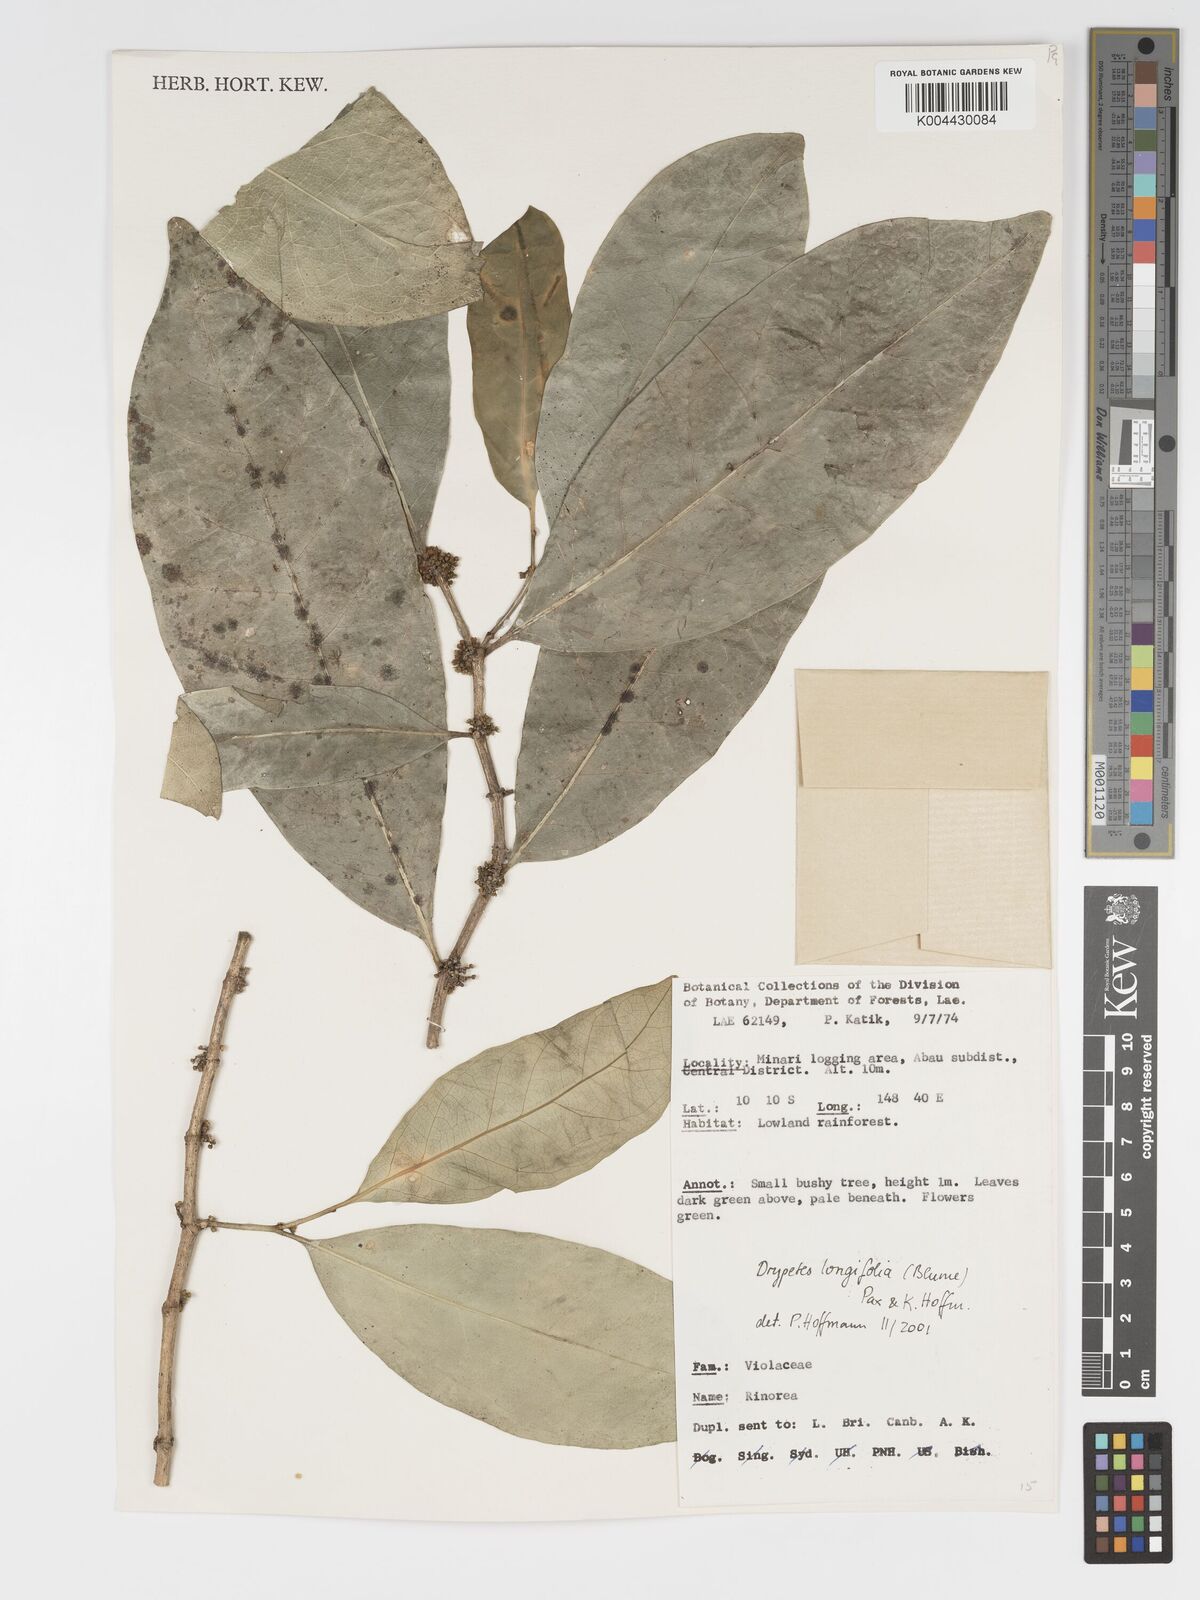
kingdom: Plantae
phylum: Tracheophyta
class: Magnoliopsida
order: Malpighiales
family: Putranjivaceae
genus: Drypetes
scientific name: Drypetes longifolia
